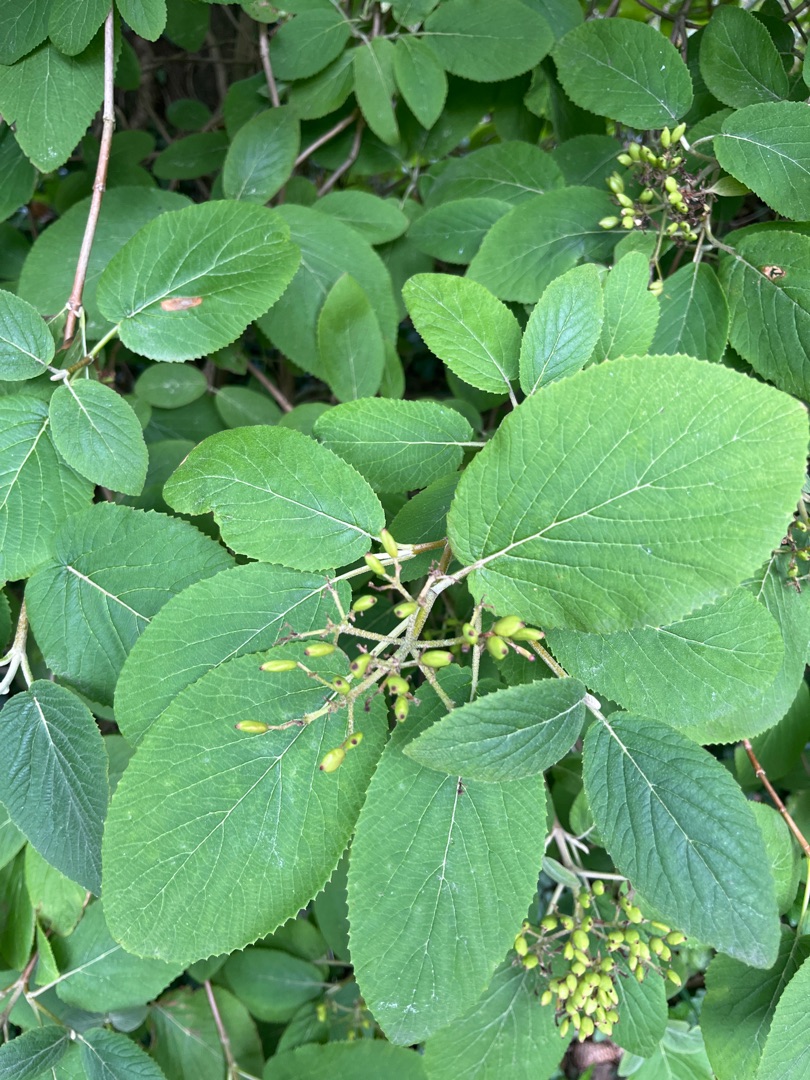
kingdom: Plantae
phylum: Tracheophyta
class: Magnoliopsida
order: Dipsacales
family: Viburnaceae
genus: Viburnum
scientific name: Viburnum lantana
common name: Pibe-kvalkved
